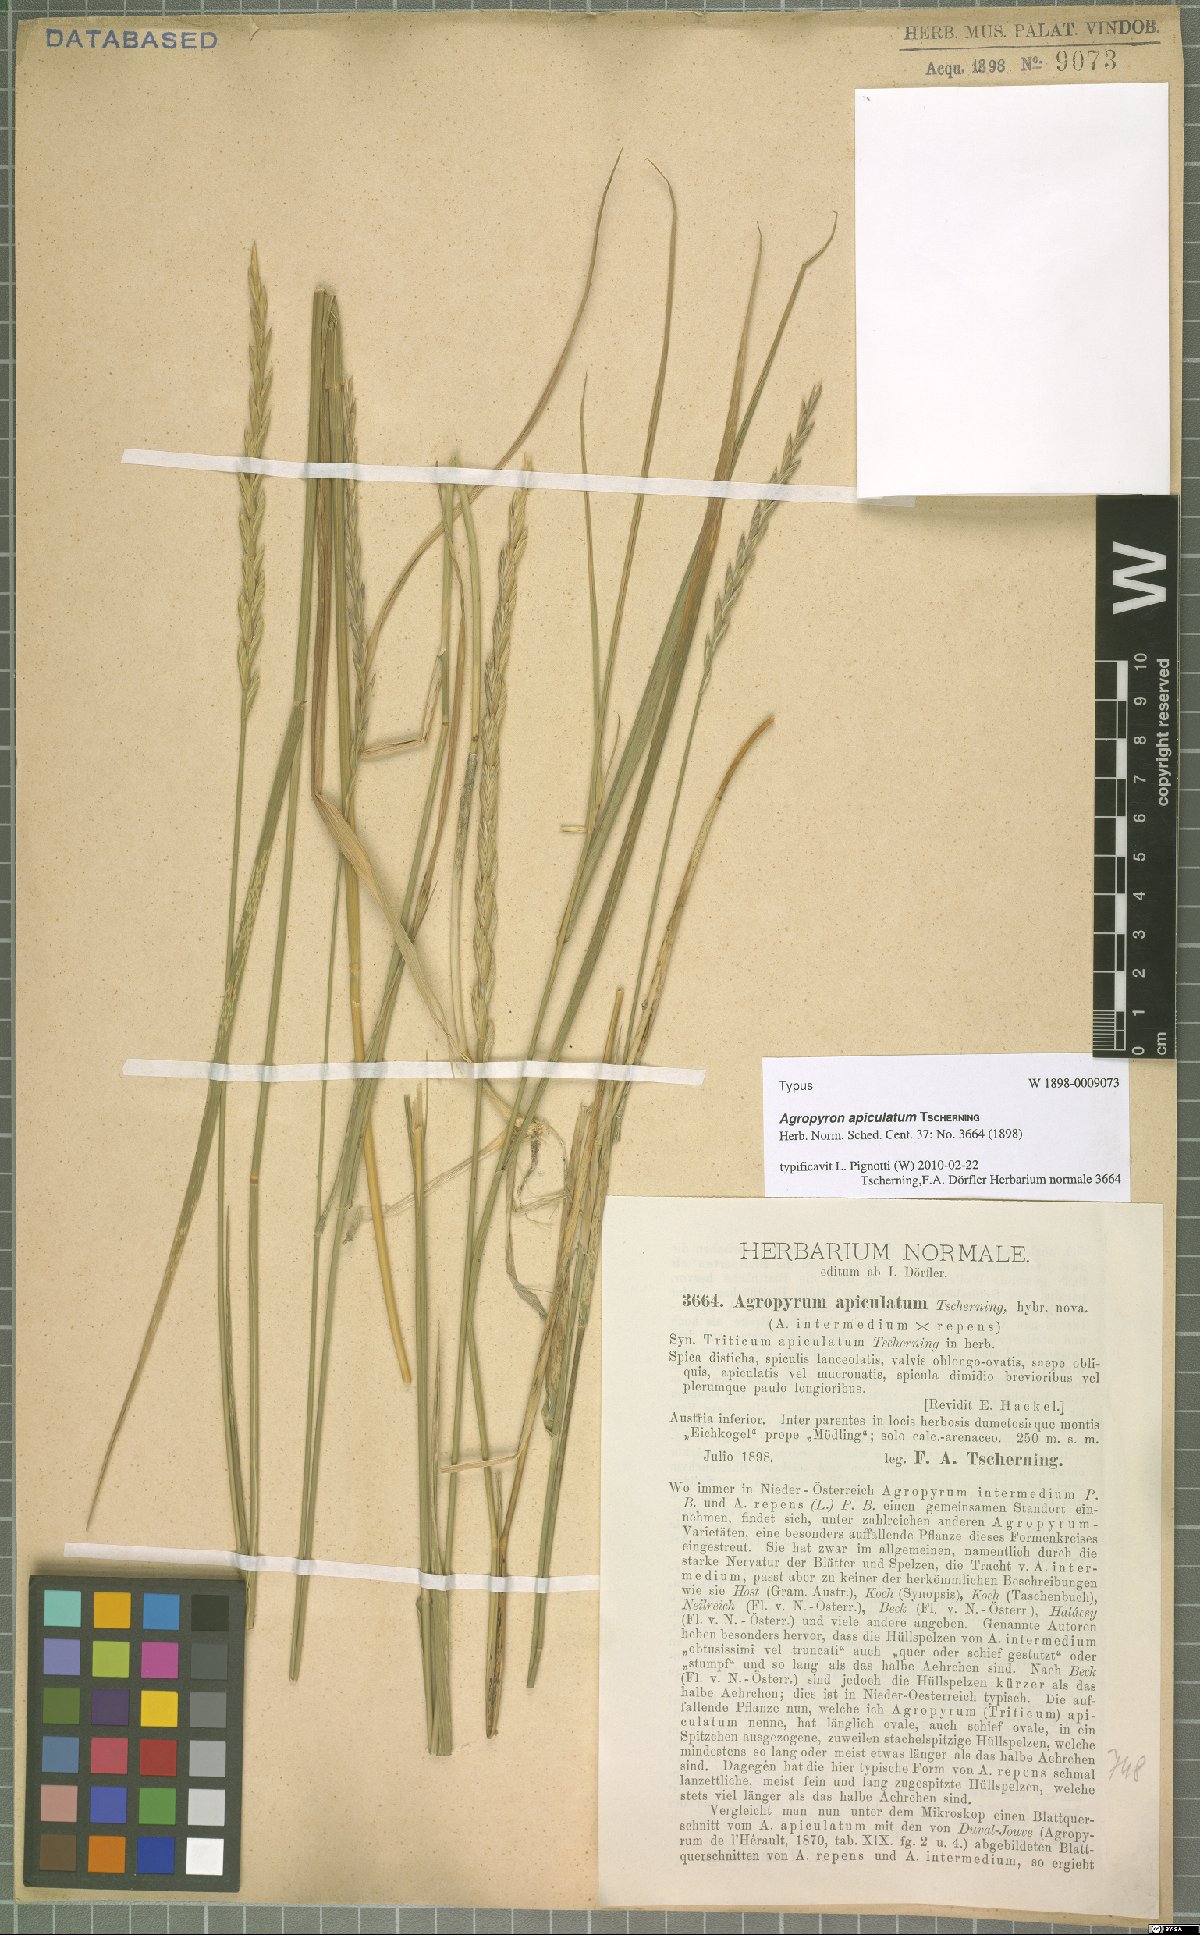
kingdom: Plantae
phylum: Tracheophyta
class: Liliopsida
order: Poales
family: Poaceae
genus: Elymus
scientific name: Elymus apiculatus
